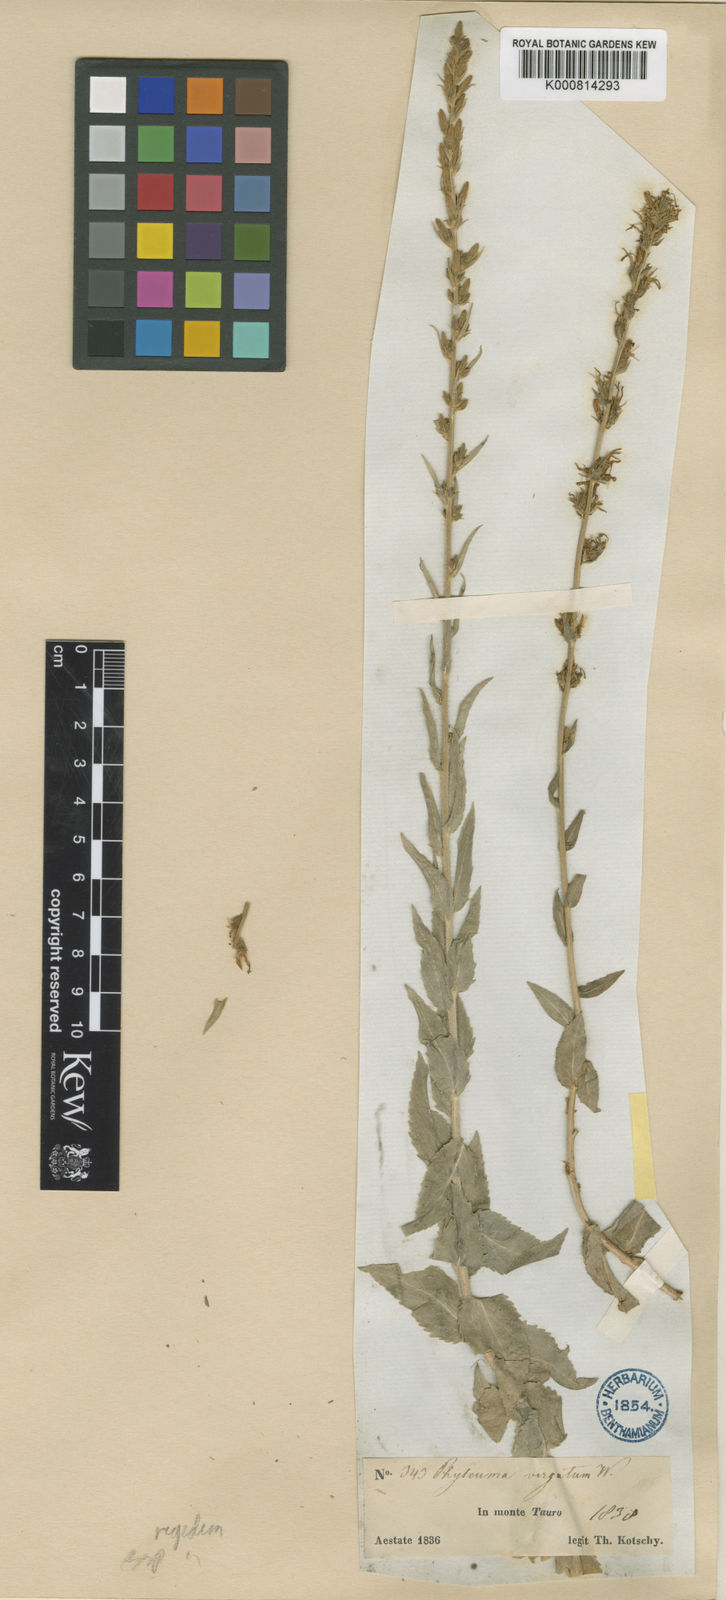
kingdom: Plantae
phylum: Tracheophyta
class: Magnoliopsida
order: Asterales
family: Campanulaceae
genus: Asyneuma
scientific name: Asyneuma rigidum
